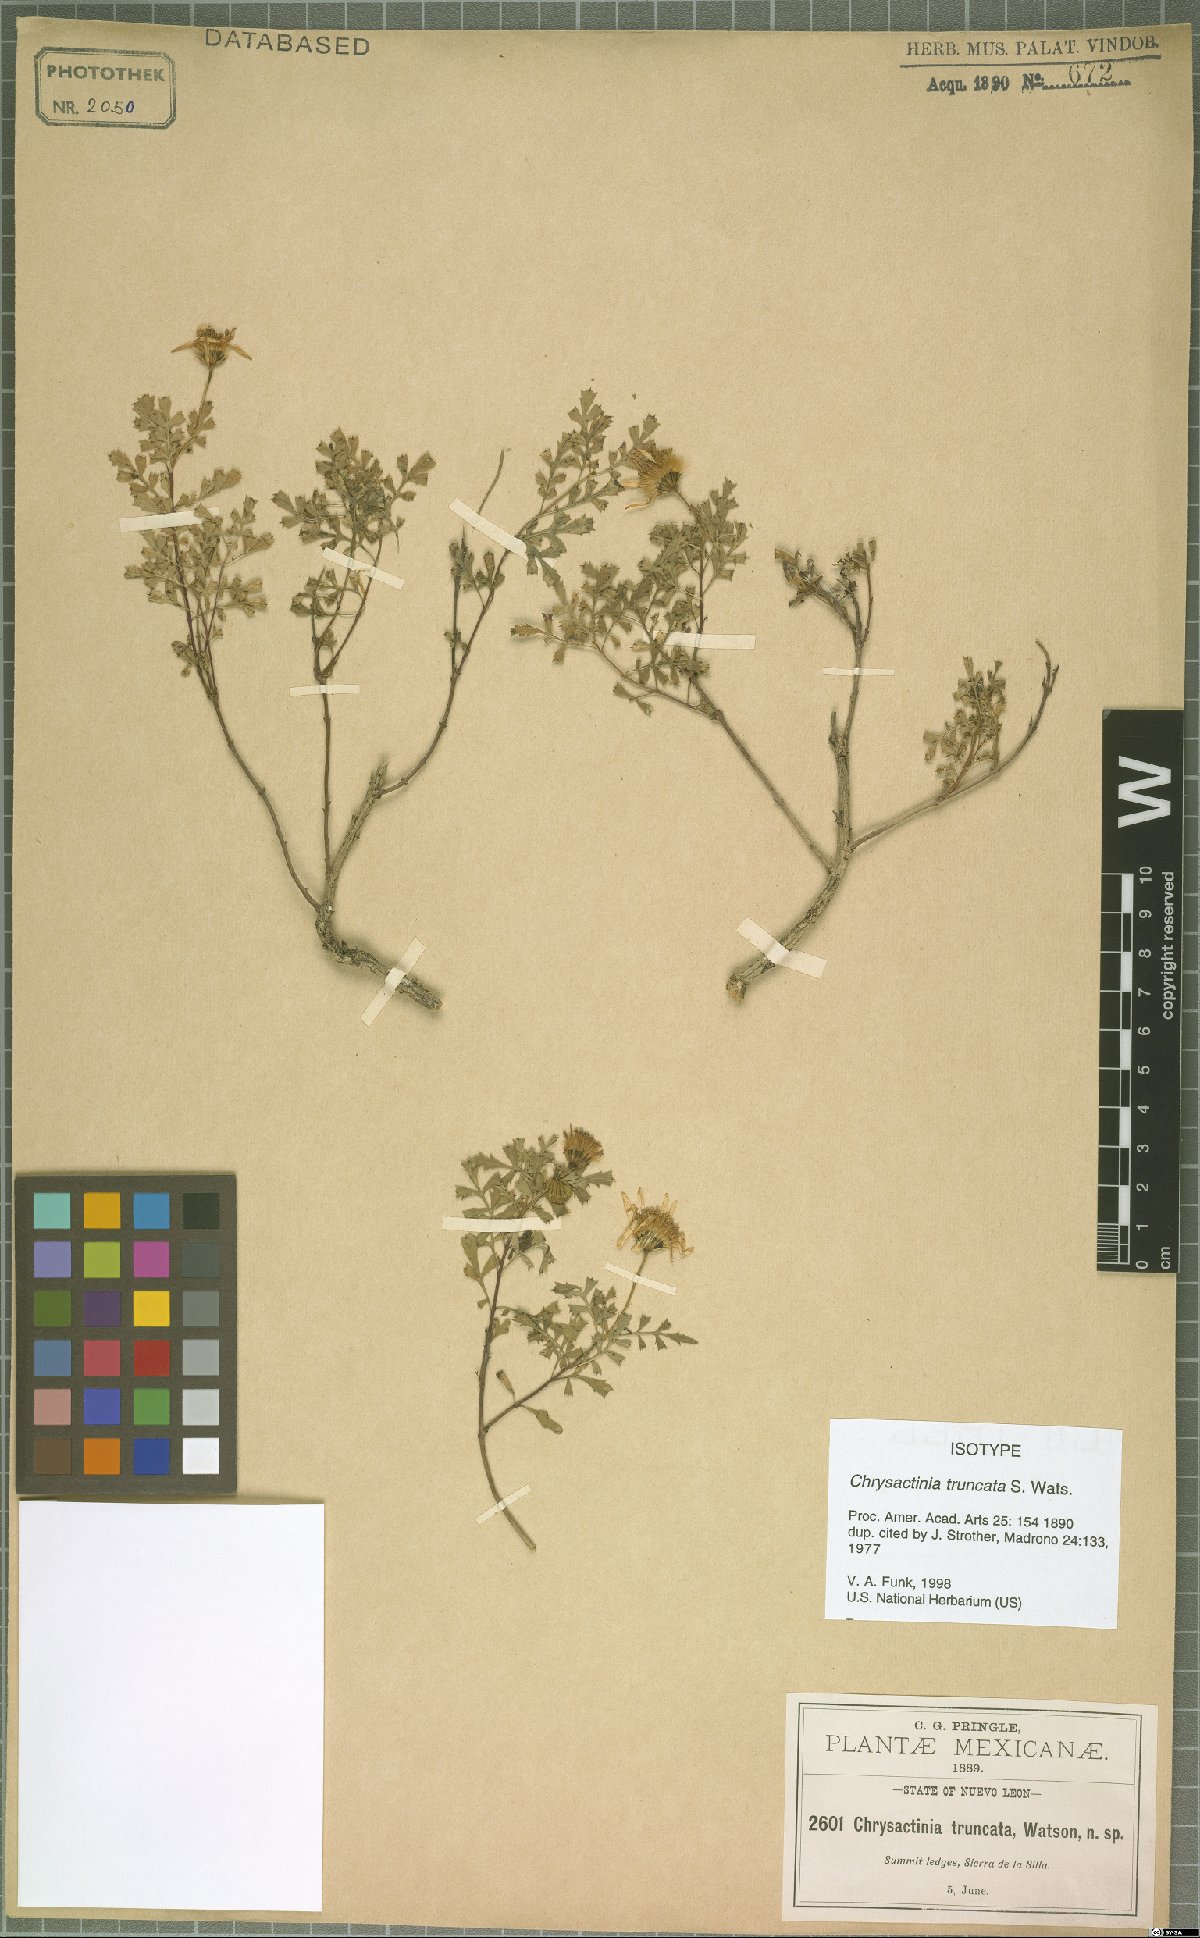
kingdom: Plantae
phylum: Tracheophyta
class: Magnoliopsida
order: Asterales
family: Asteraceae
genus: Chrysactinia
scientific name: Chrysactinia truncata
